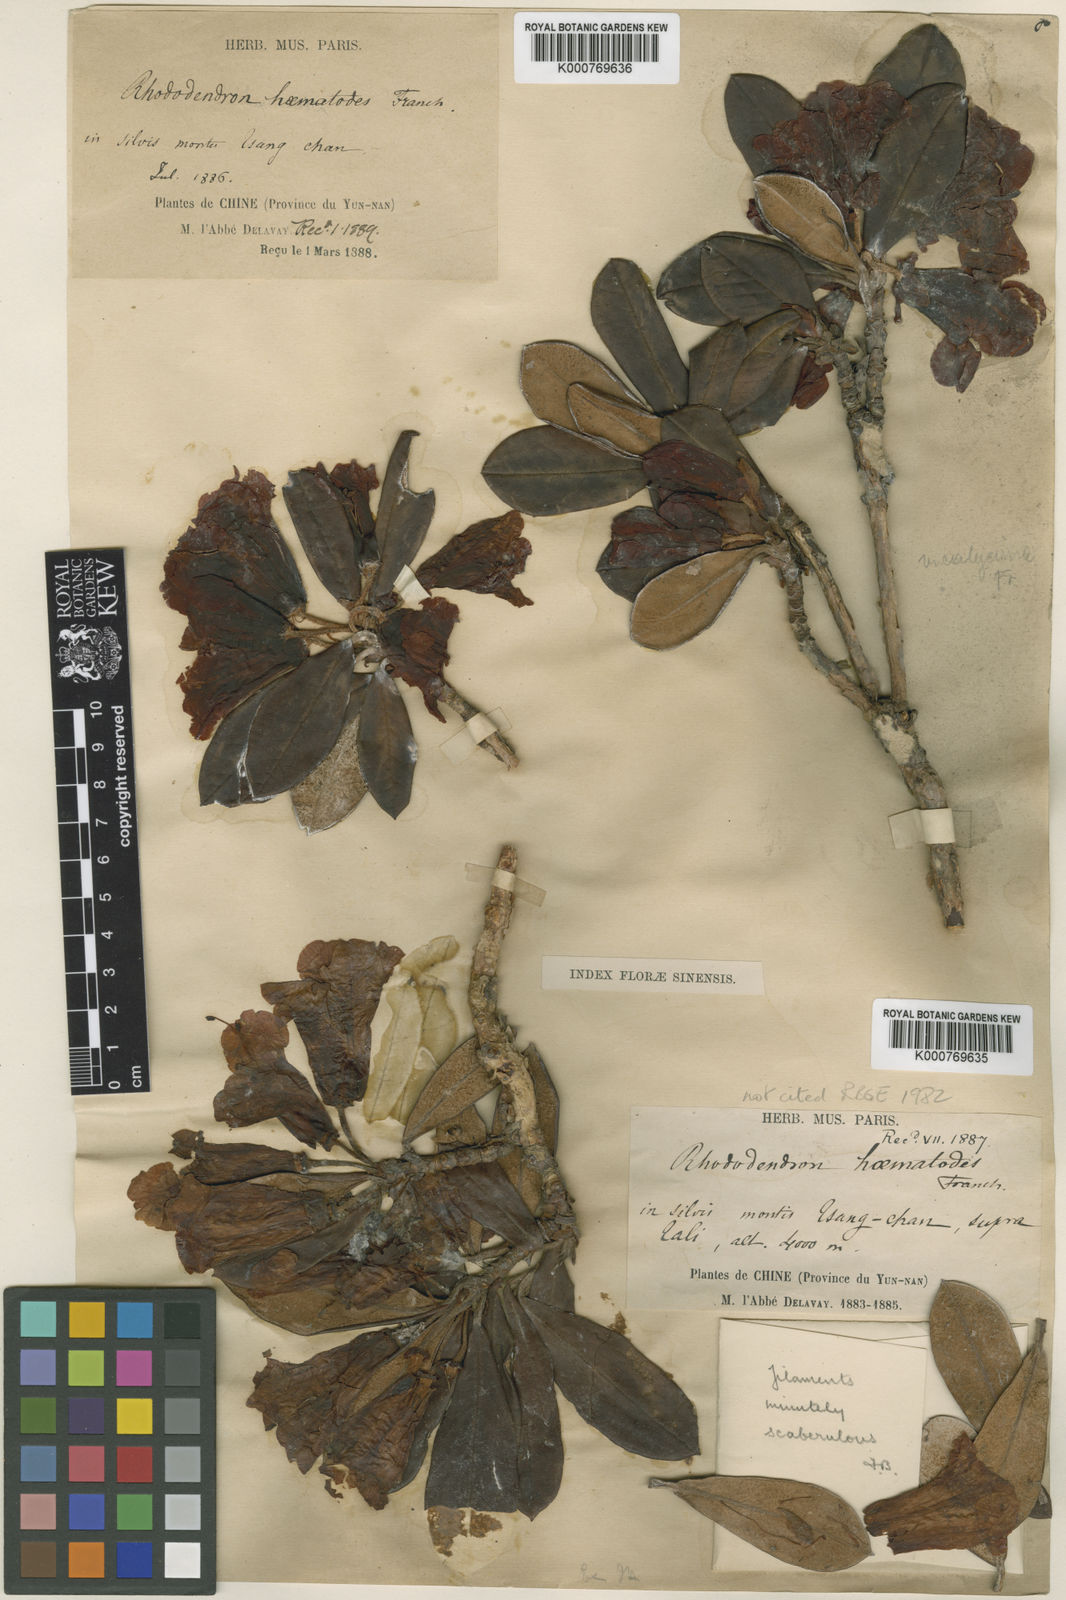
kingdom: Plantae
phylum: Tracheophyta
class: Magnoliopsida
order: Ericales
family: Ericaceae
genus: Rhododendron
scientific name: Rhododendron haematodes
